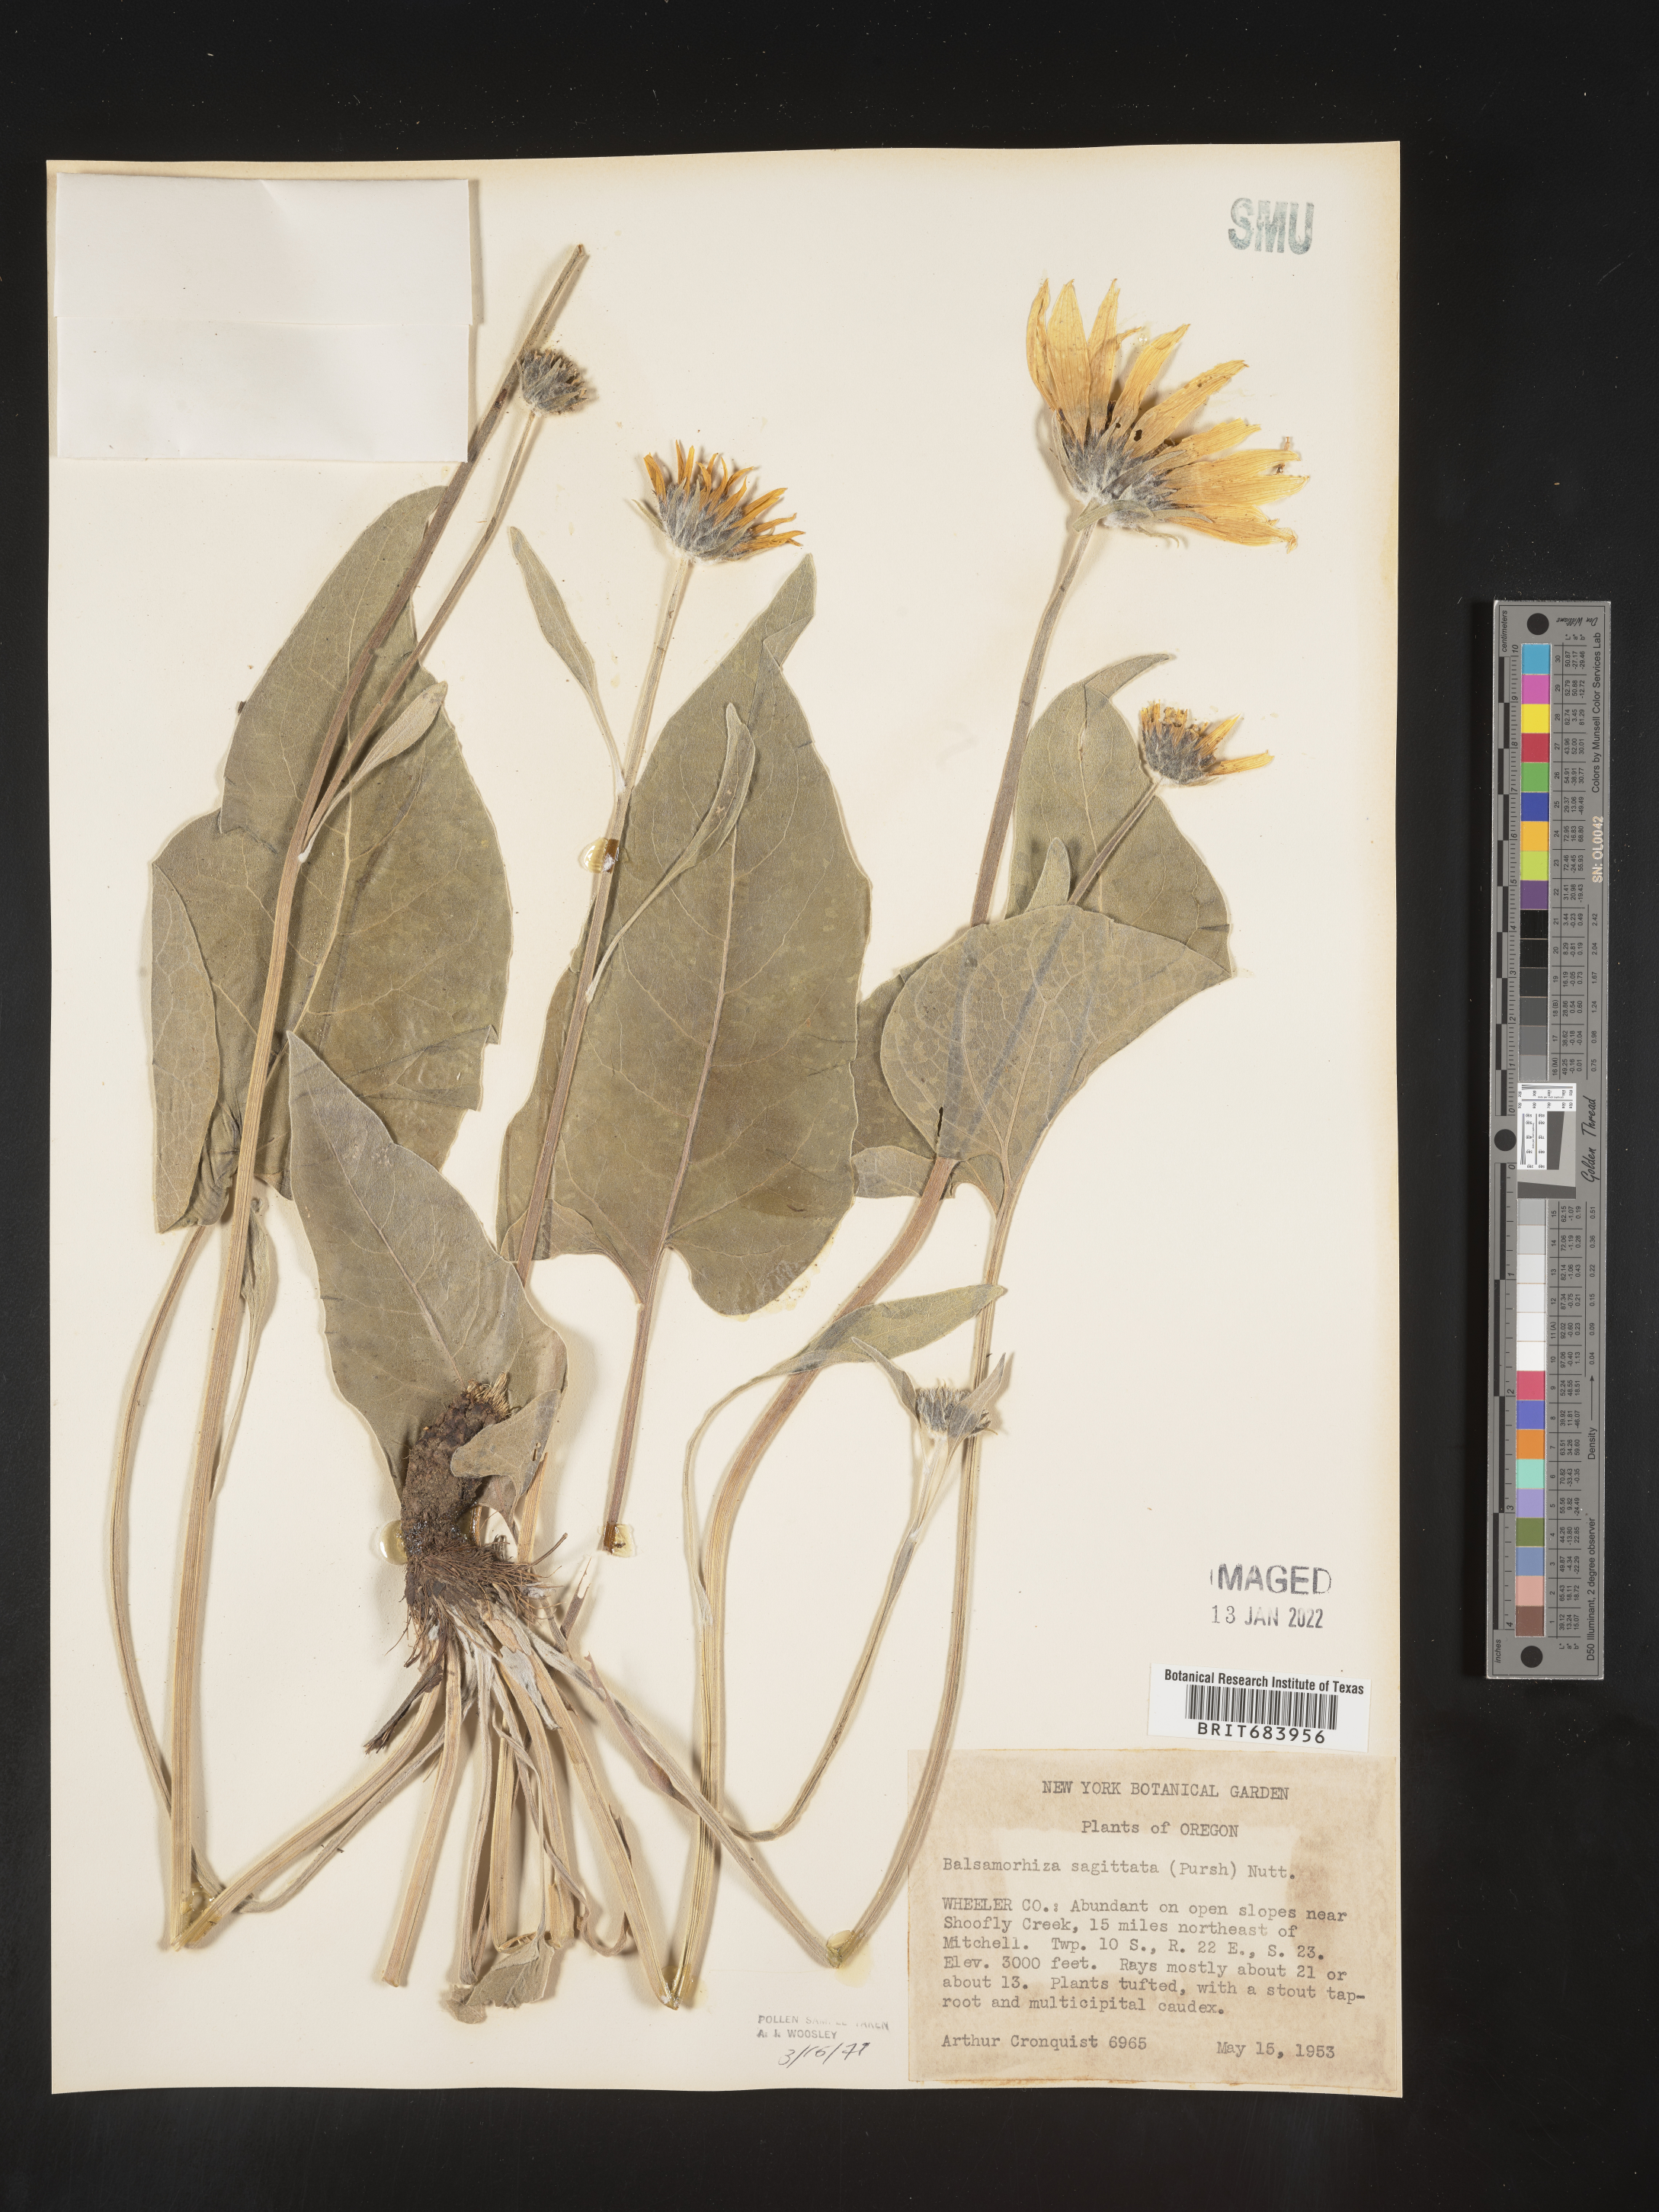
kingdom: Plantae
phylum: Tracheophyta
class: Magnoliopsida
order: Asterales
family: Asteraceae
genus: Wyethia
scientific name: Wyethia sagittata
